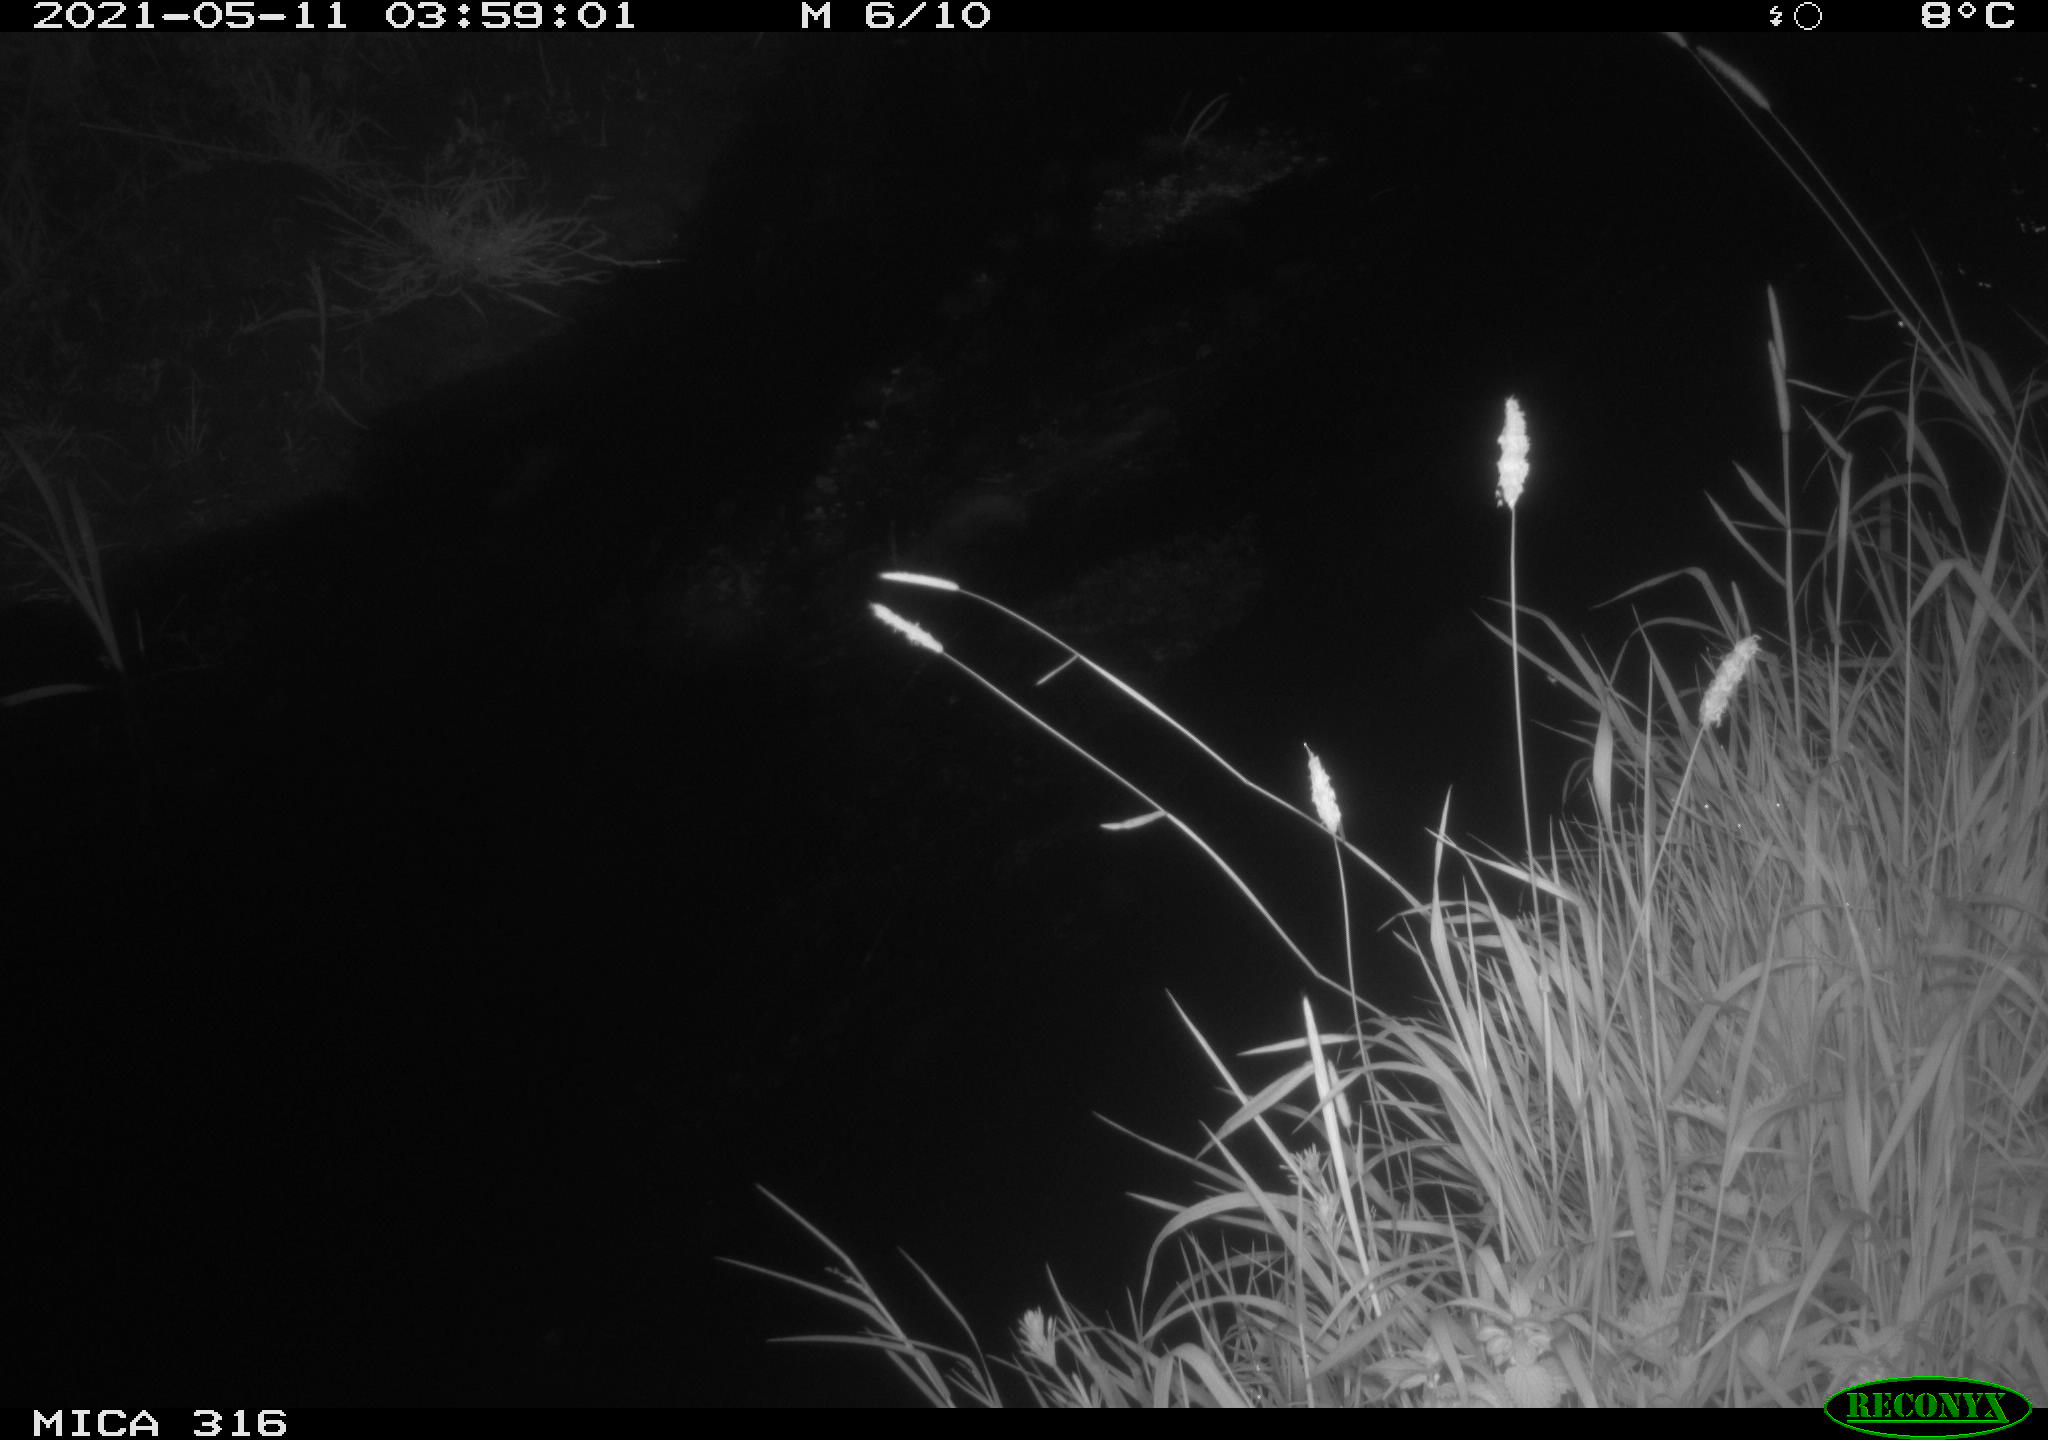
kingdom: Animalia
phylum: Chordata
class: Aves
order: Anseriformes
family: Anatidae
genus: Anas
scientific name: Anas platyrhynchos
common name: Mallard
